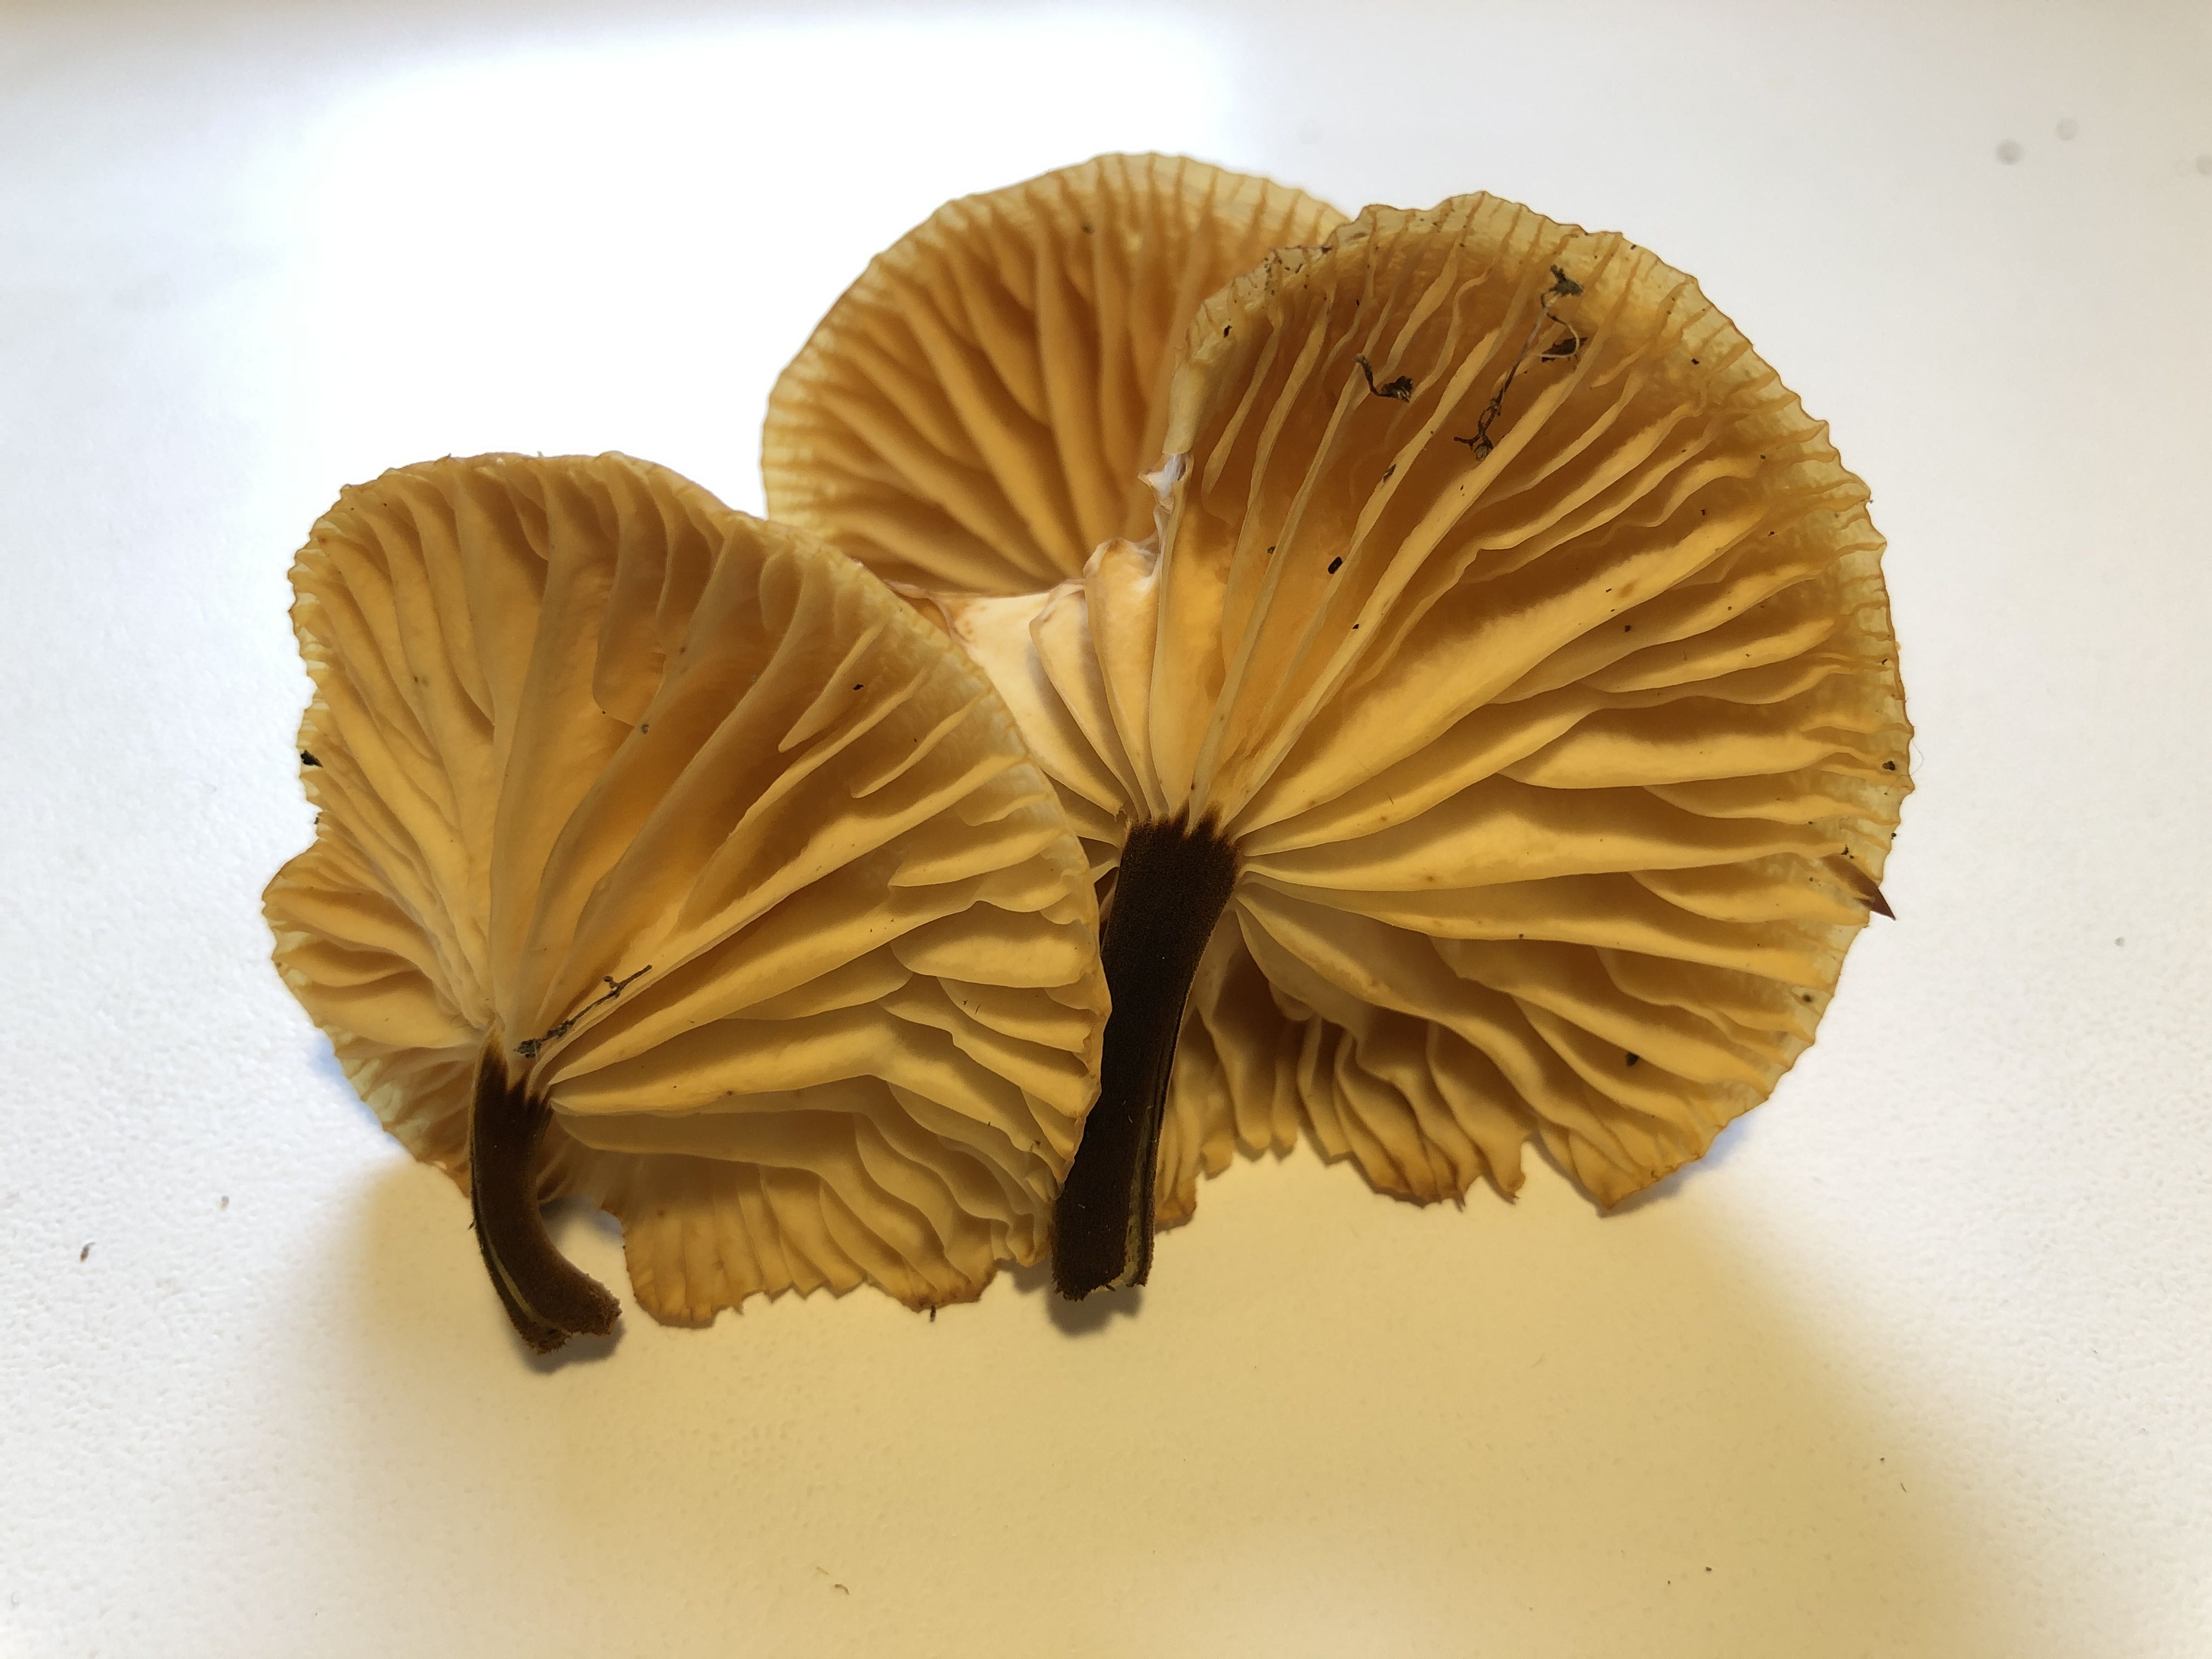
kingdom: Fungi
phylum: Basidiomycota
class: Agaricomycetes
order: Agaricales
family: Physalacriaceae
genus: Flammulina
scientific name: Flammulina elastica
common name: pile-fløjlsfod
